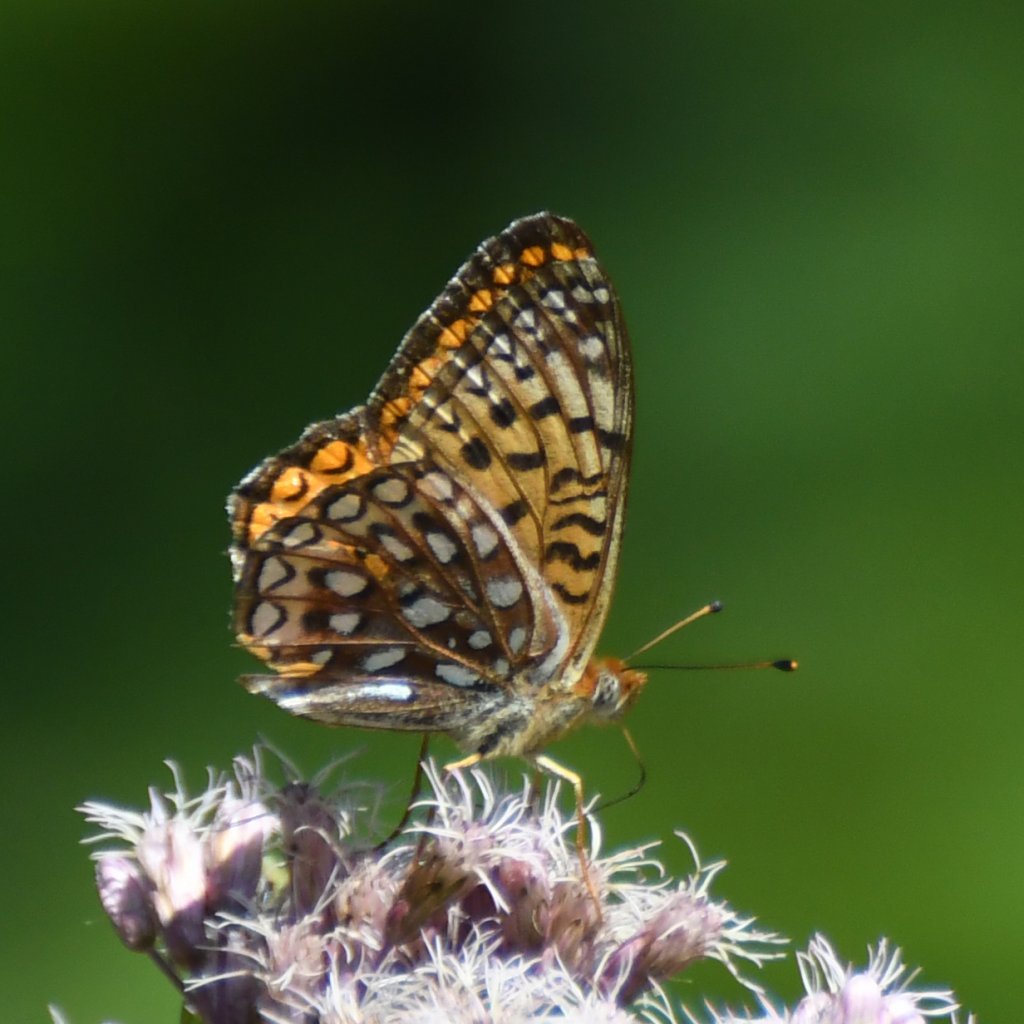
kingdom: Animalia
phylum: Arthropoda
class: Insecta
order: Lepidoptera
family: Nymphalidae
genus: Speyeria
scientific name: Speyeria atlantis
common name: Atlantis Fritillary
